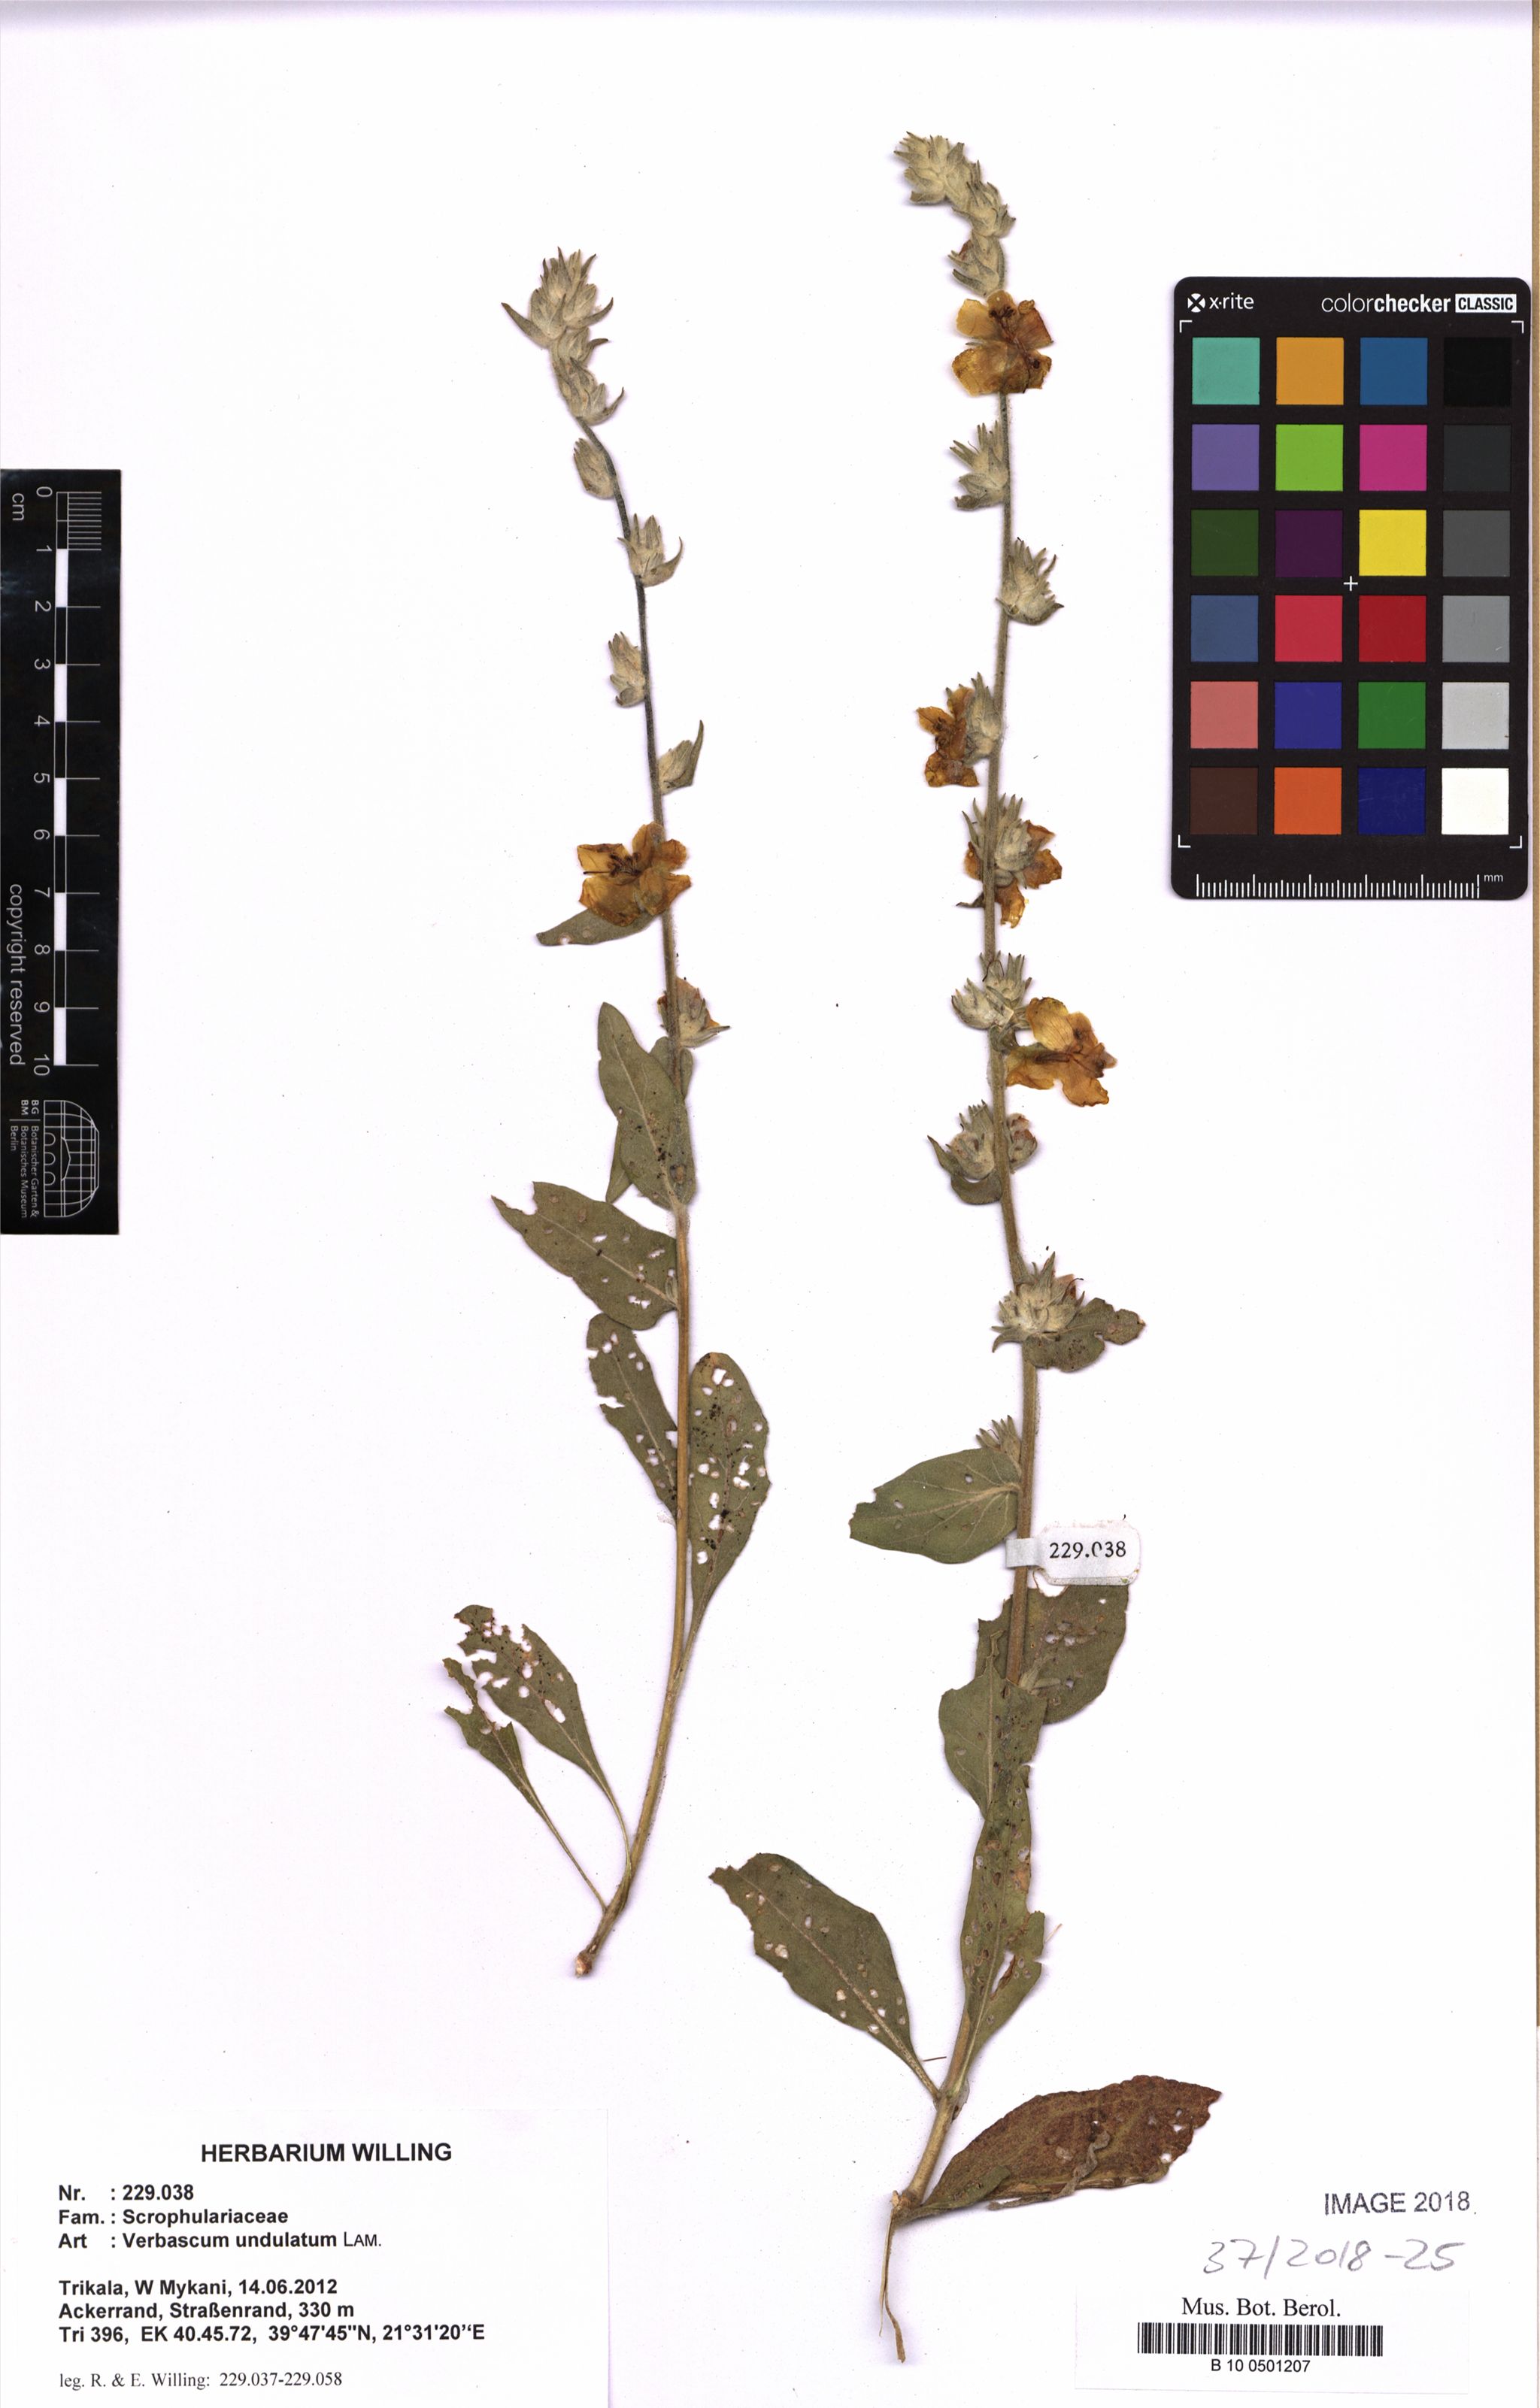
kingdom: Plantae
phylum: Tracheophyta
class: Magnoliopsida
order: Lamiales
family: Scrophulariaceae
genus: Verbascum
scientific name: Verbascum undulatum
